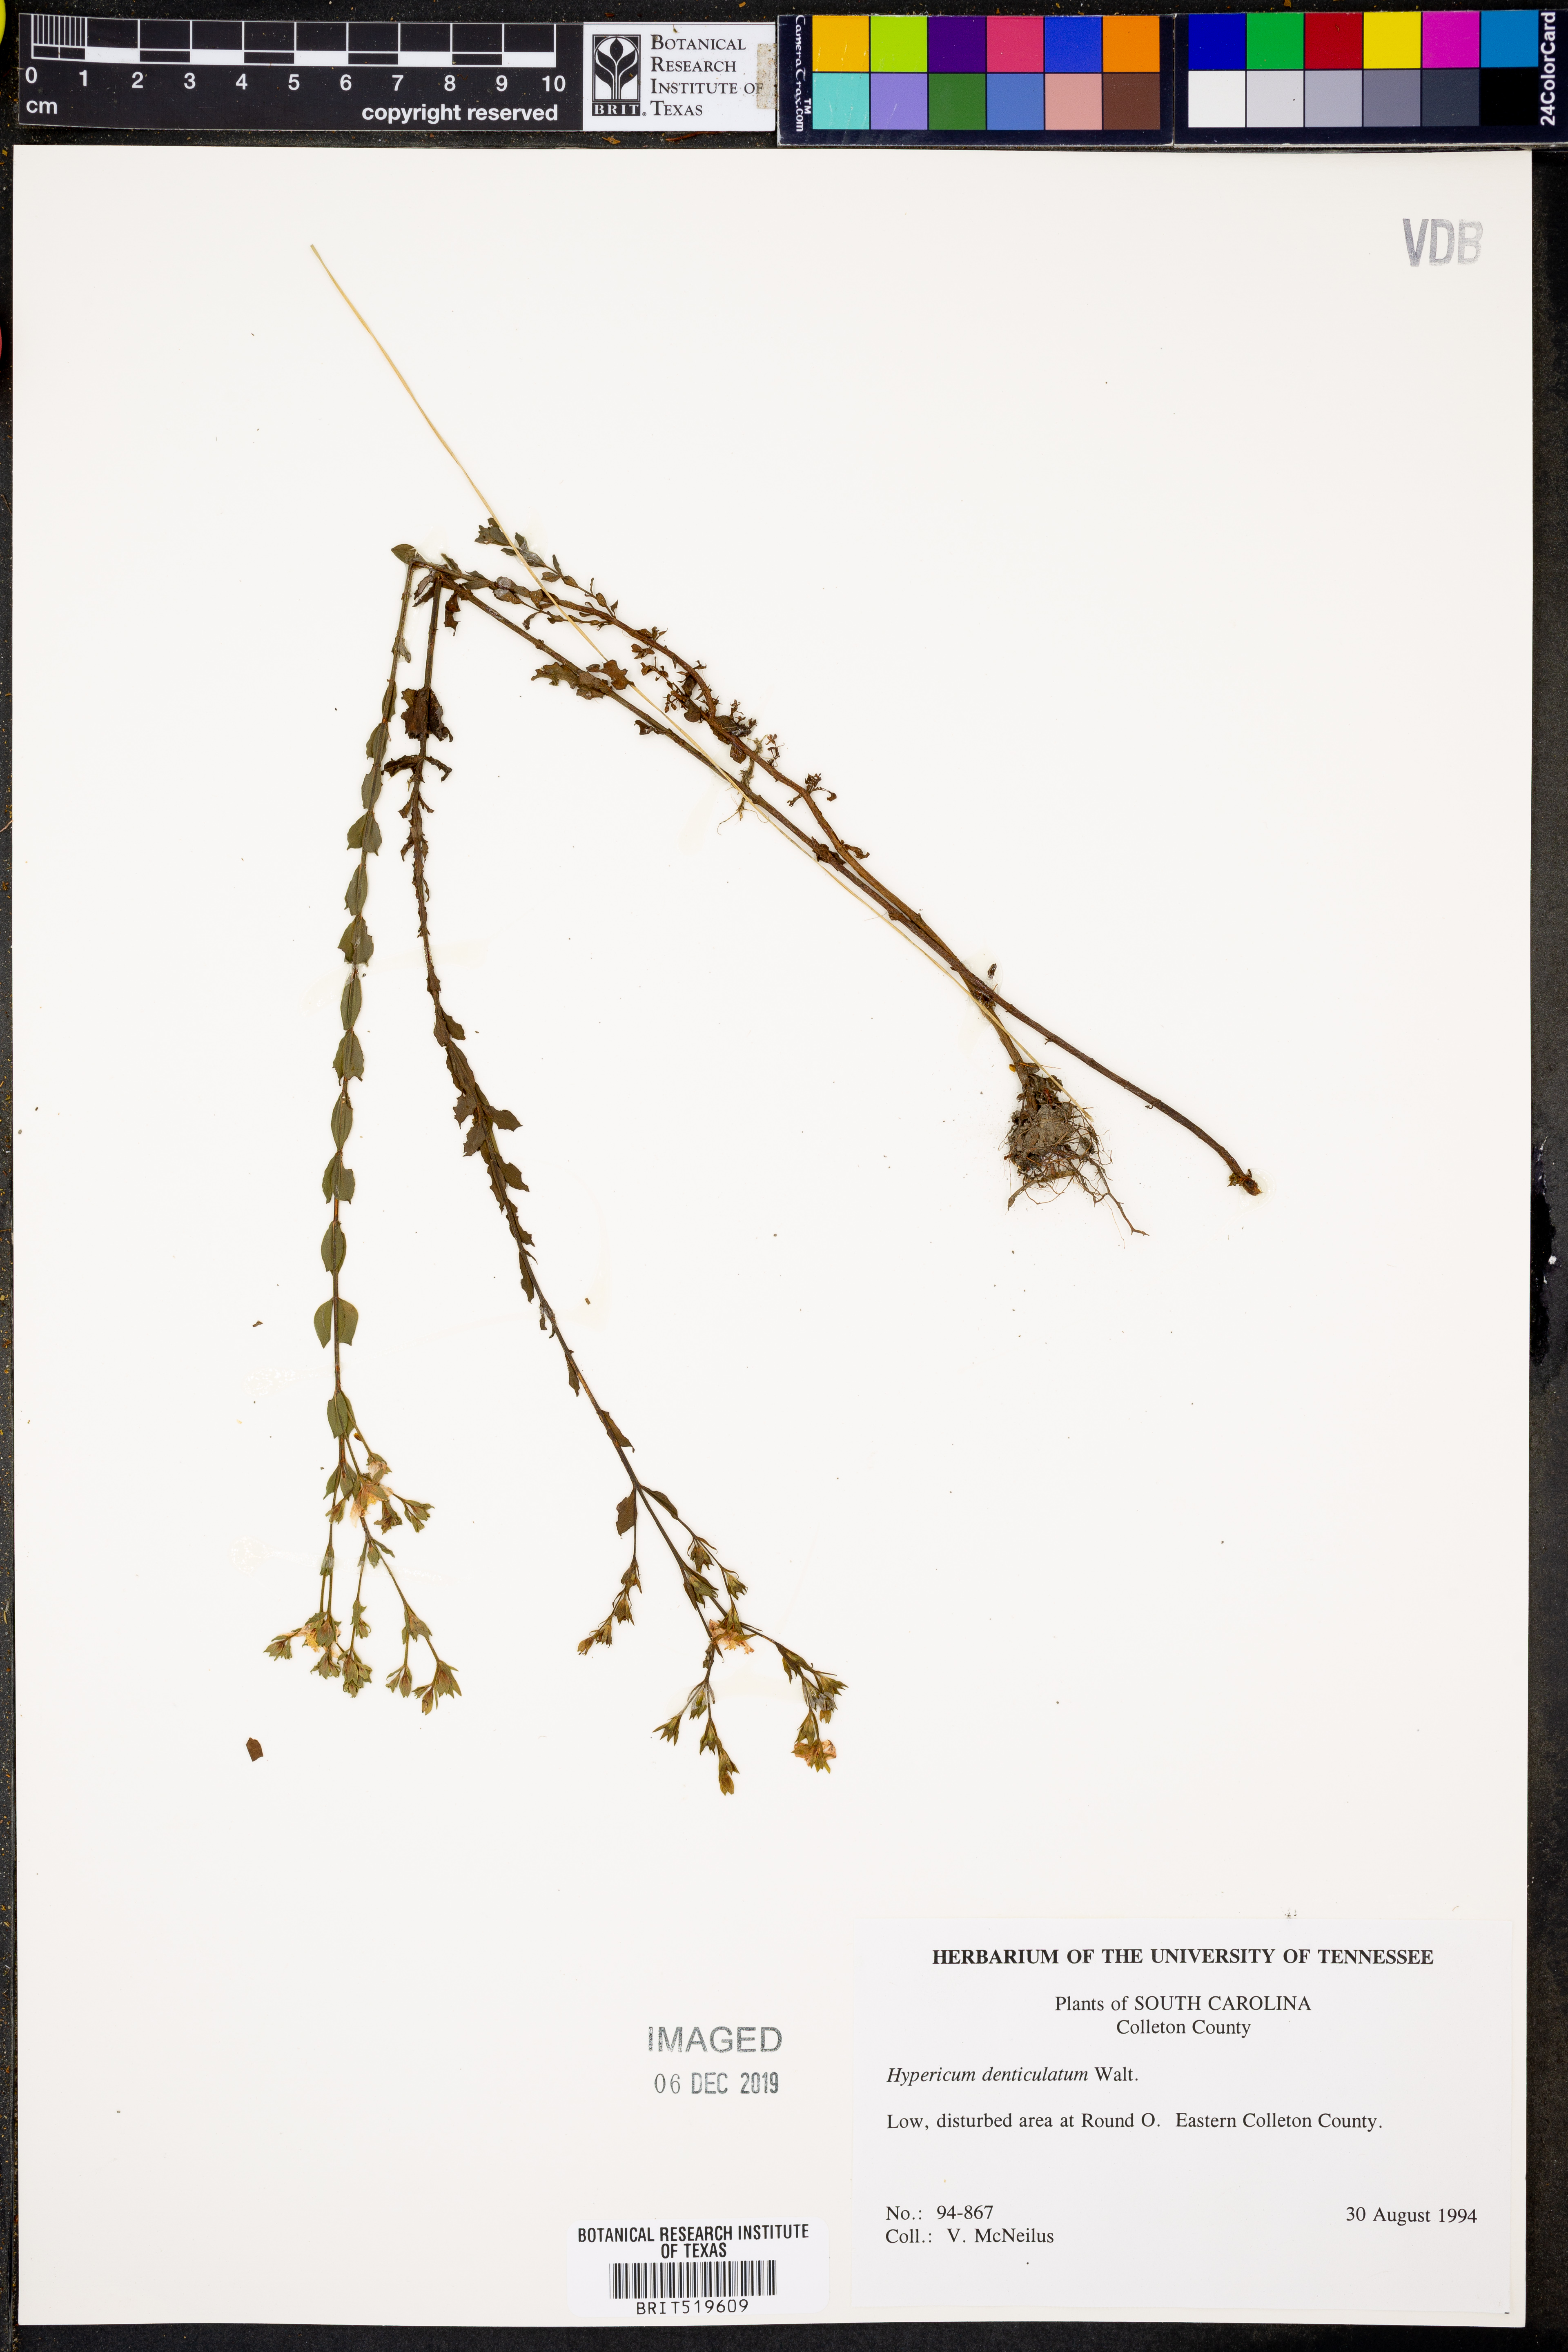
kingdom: Plantae
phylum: Tracheophyta
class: Magnoliopsida
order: Malpighiales
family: Hypericaceae
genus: Hypericum
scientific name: Hypericum denticulatum
